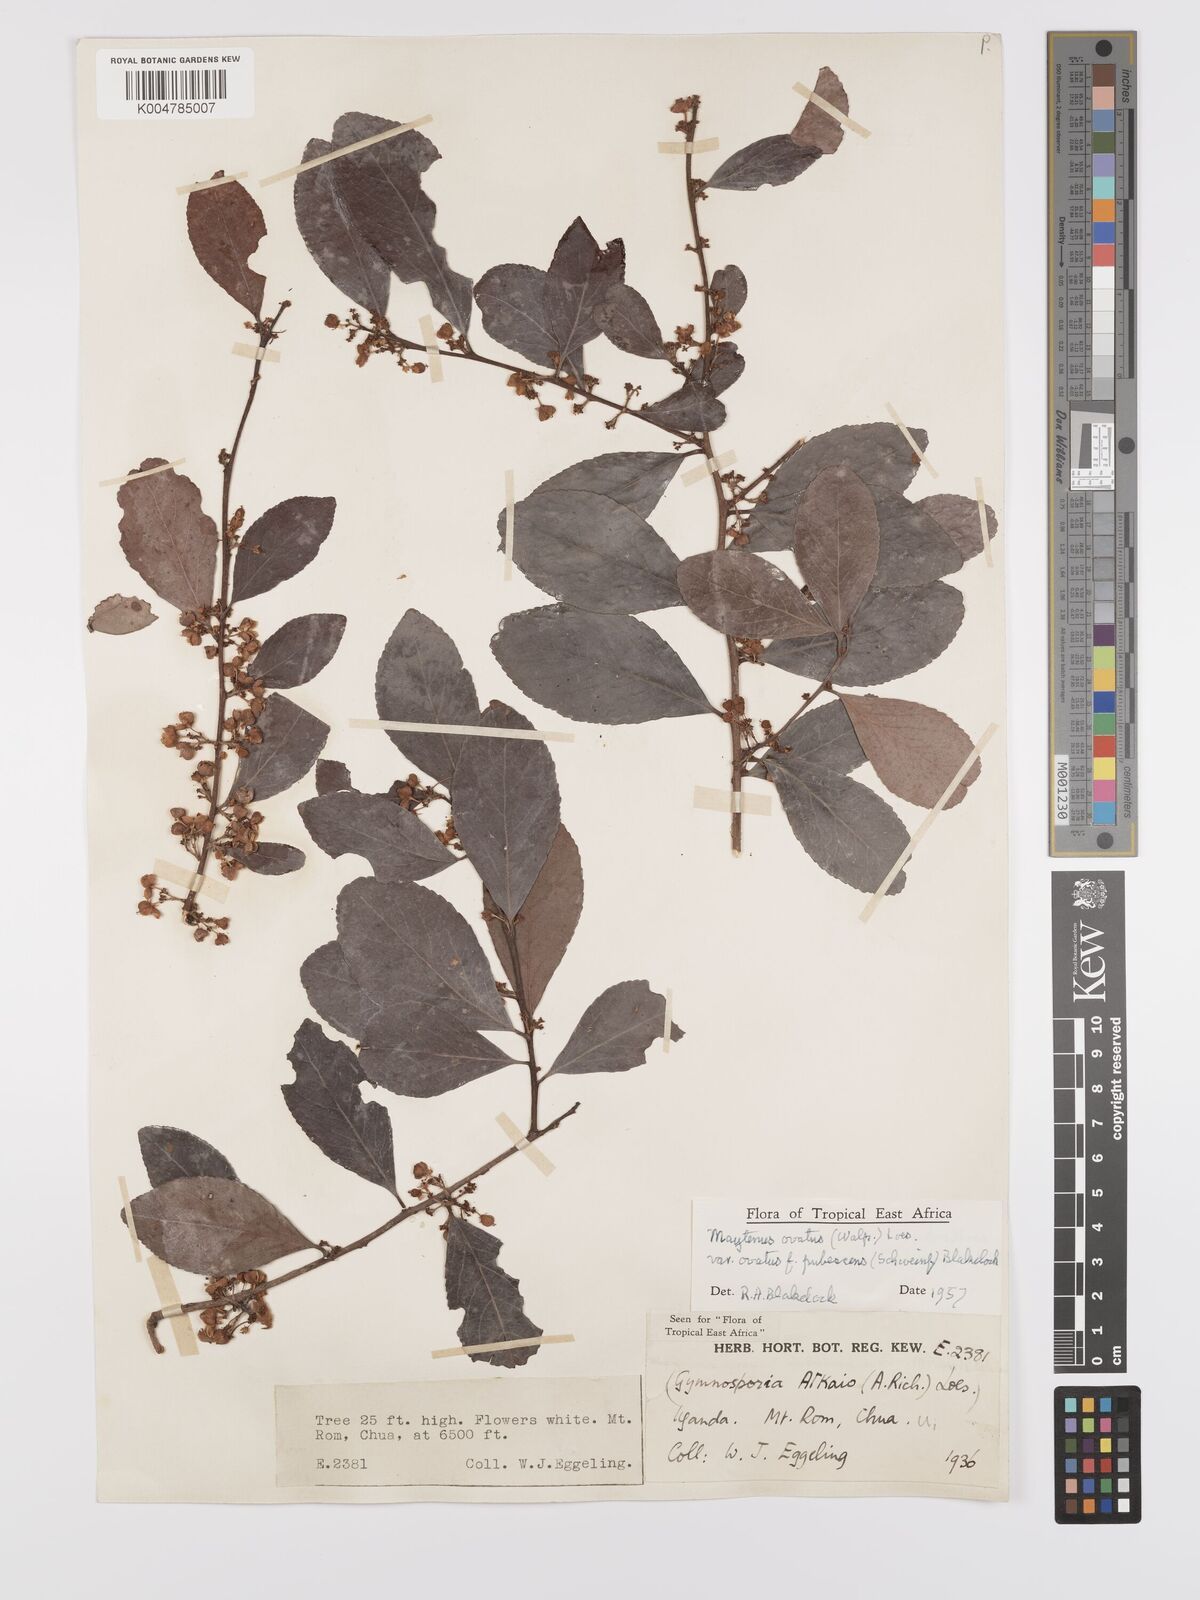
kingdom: Plantae
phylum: Tracheophyta
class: Magnoliopsida
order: Celastrales
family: Celastraceae
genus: Gymnosporia
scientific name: Gymnosporia buchananii
